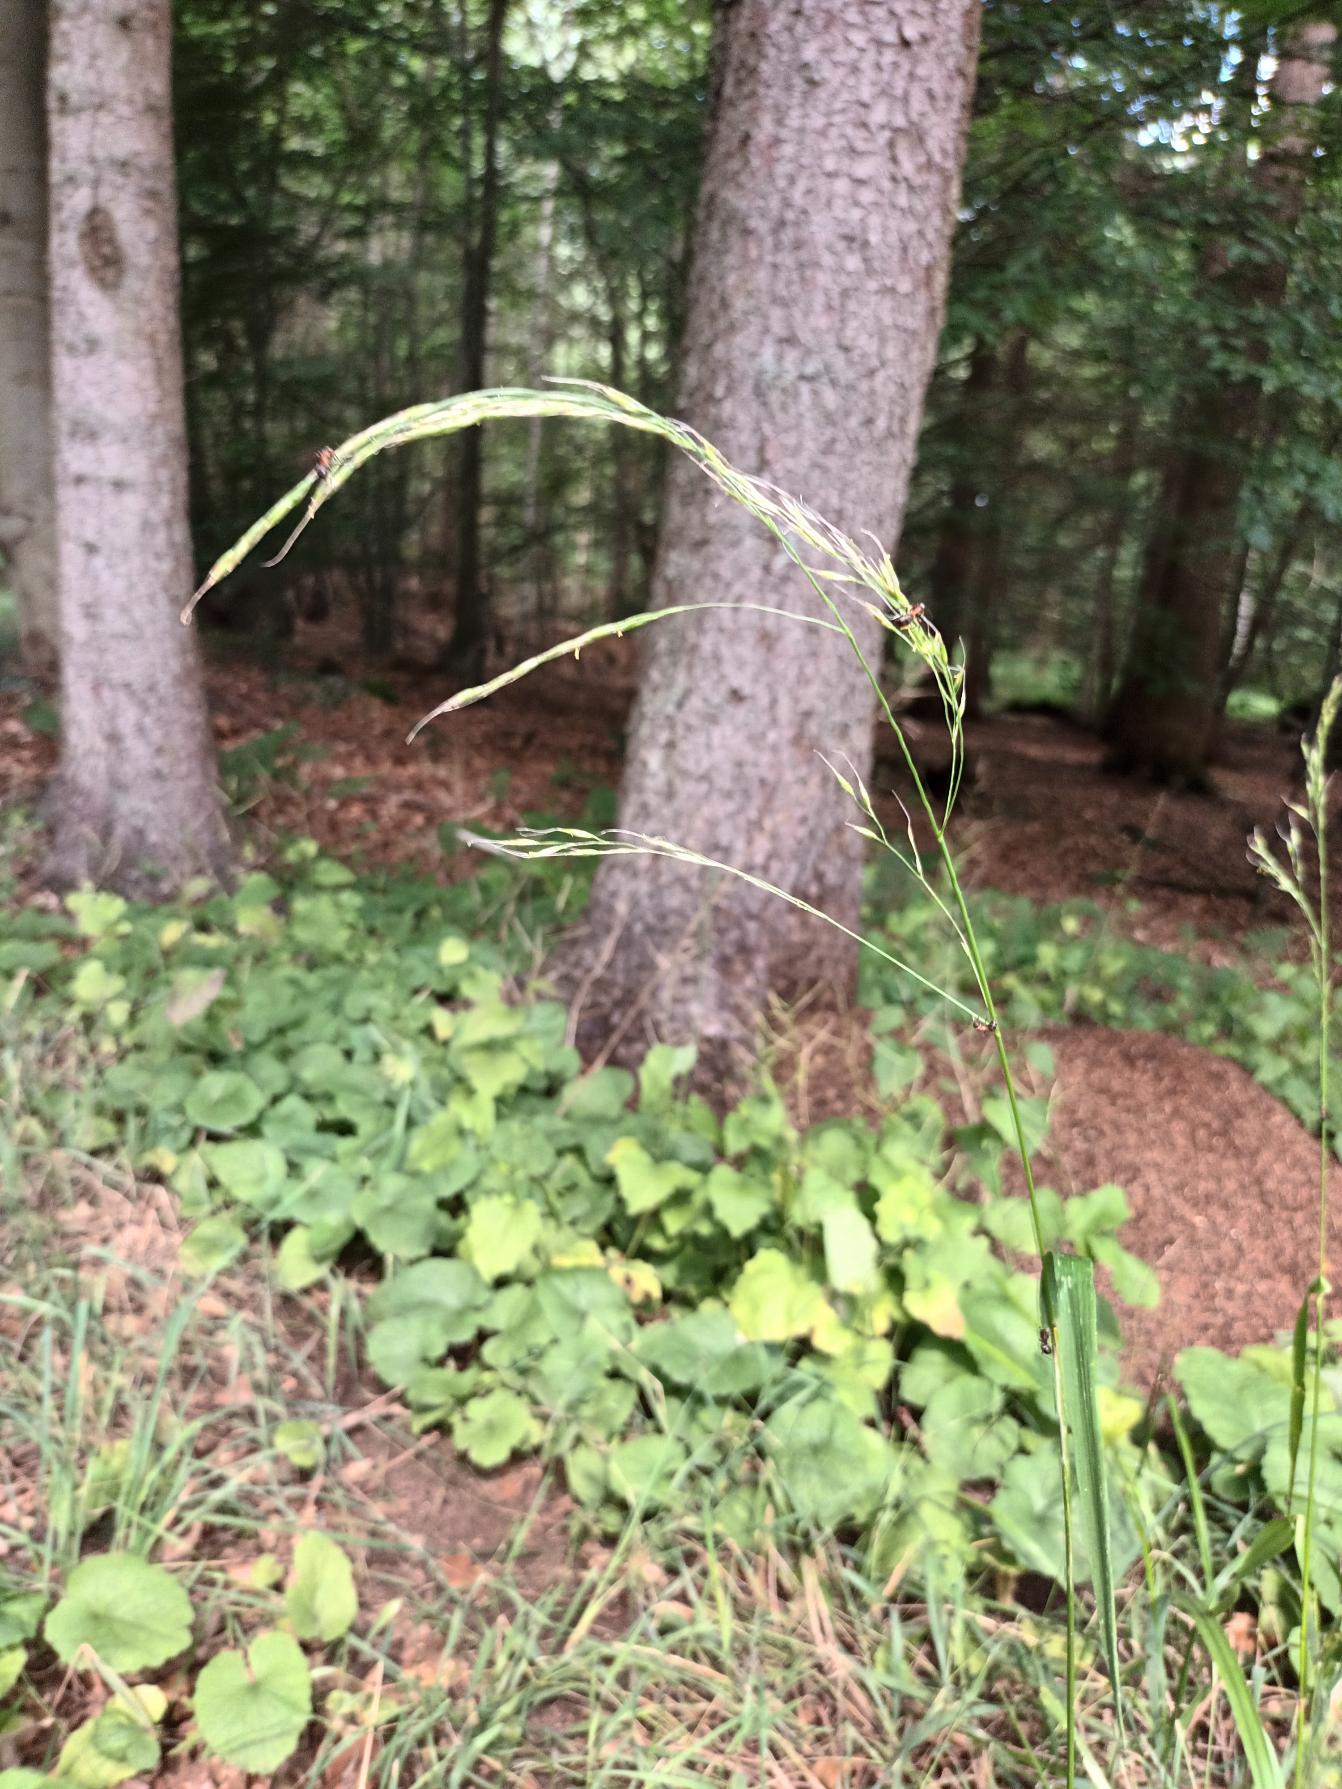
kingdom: Plantae
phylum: Tracheophyta
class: Liliopsida
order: Poales
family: Poaceae
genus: Lolium
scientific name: Lolium giganteum
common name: Kæmpe-svingel
